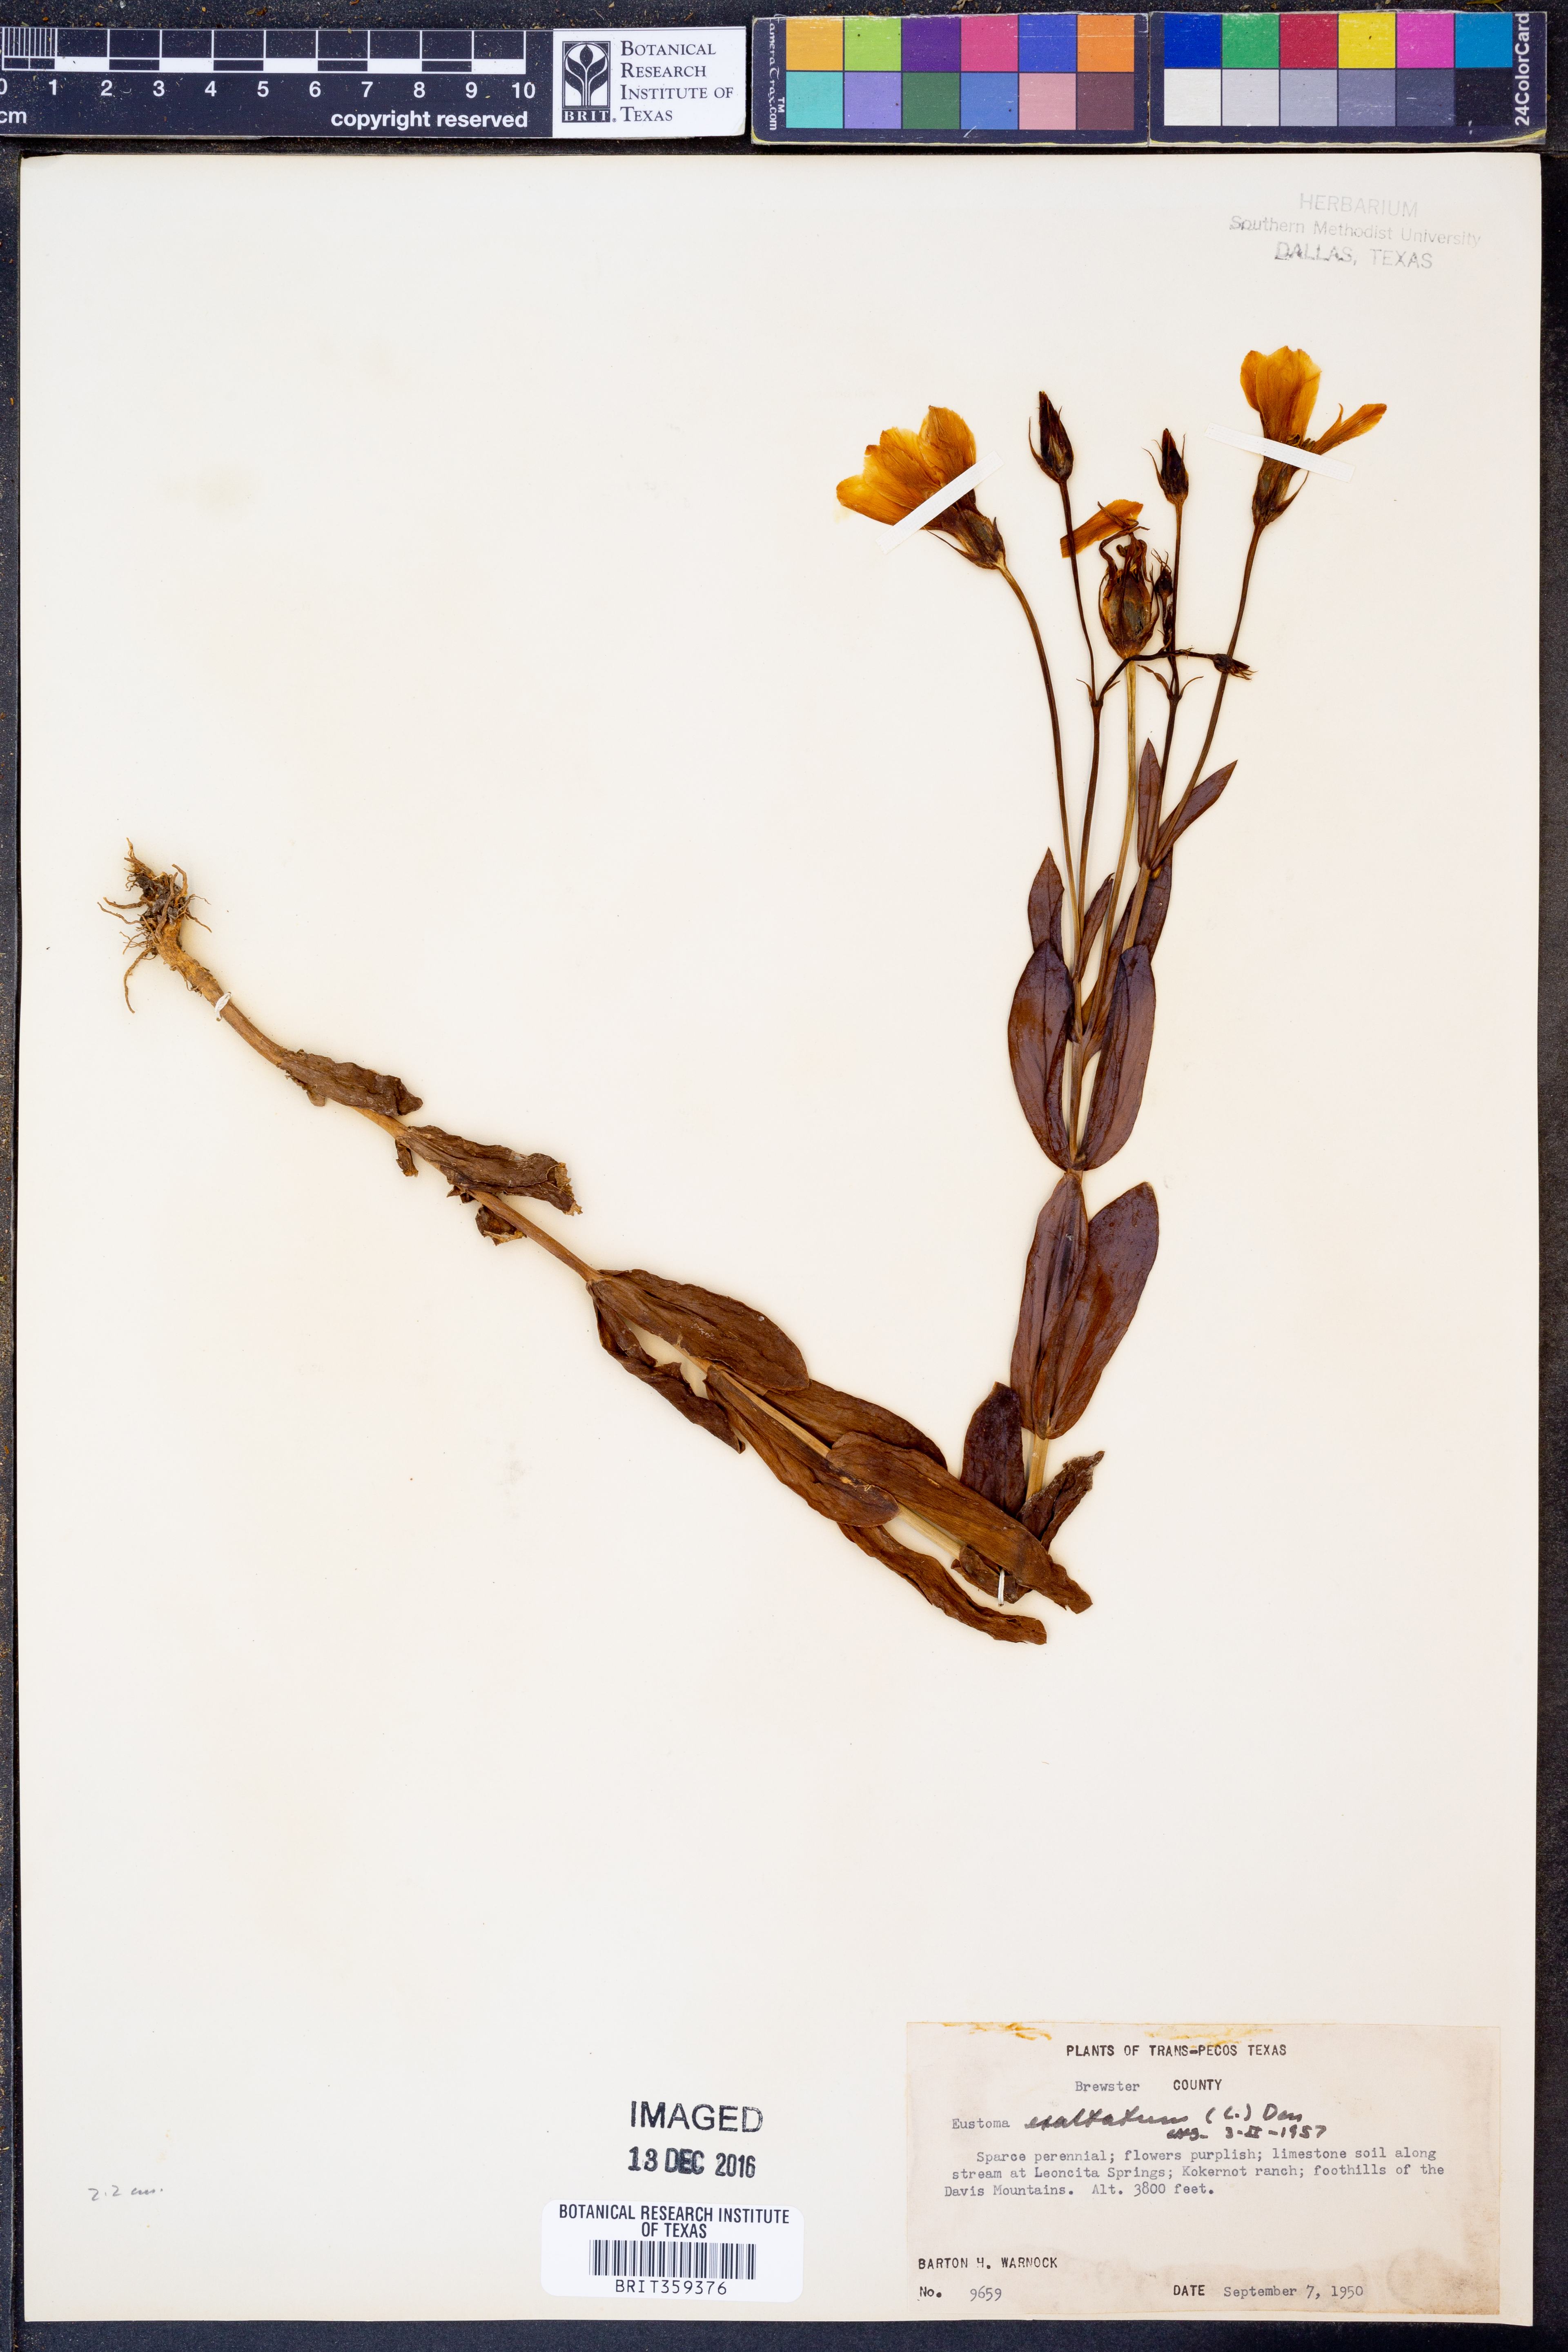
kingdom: Plantae
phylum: Tracheophyta
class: Magnoliopsida
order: Gentianales
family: Gentianaceae
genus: Eustoma
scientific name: Eustoma exaltatum
